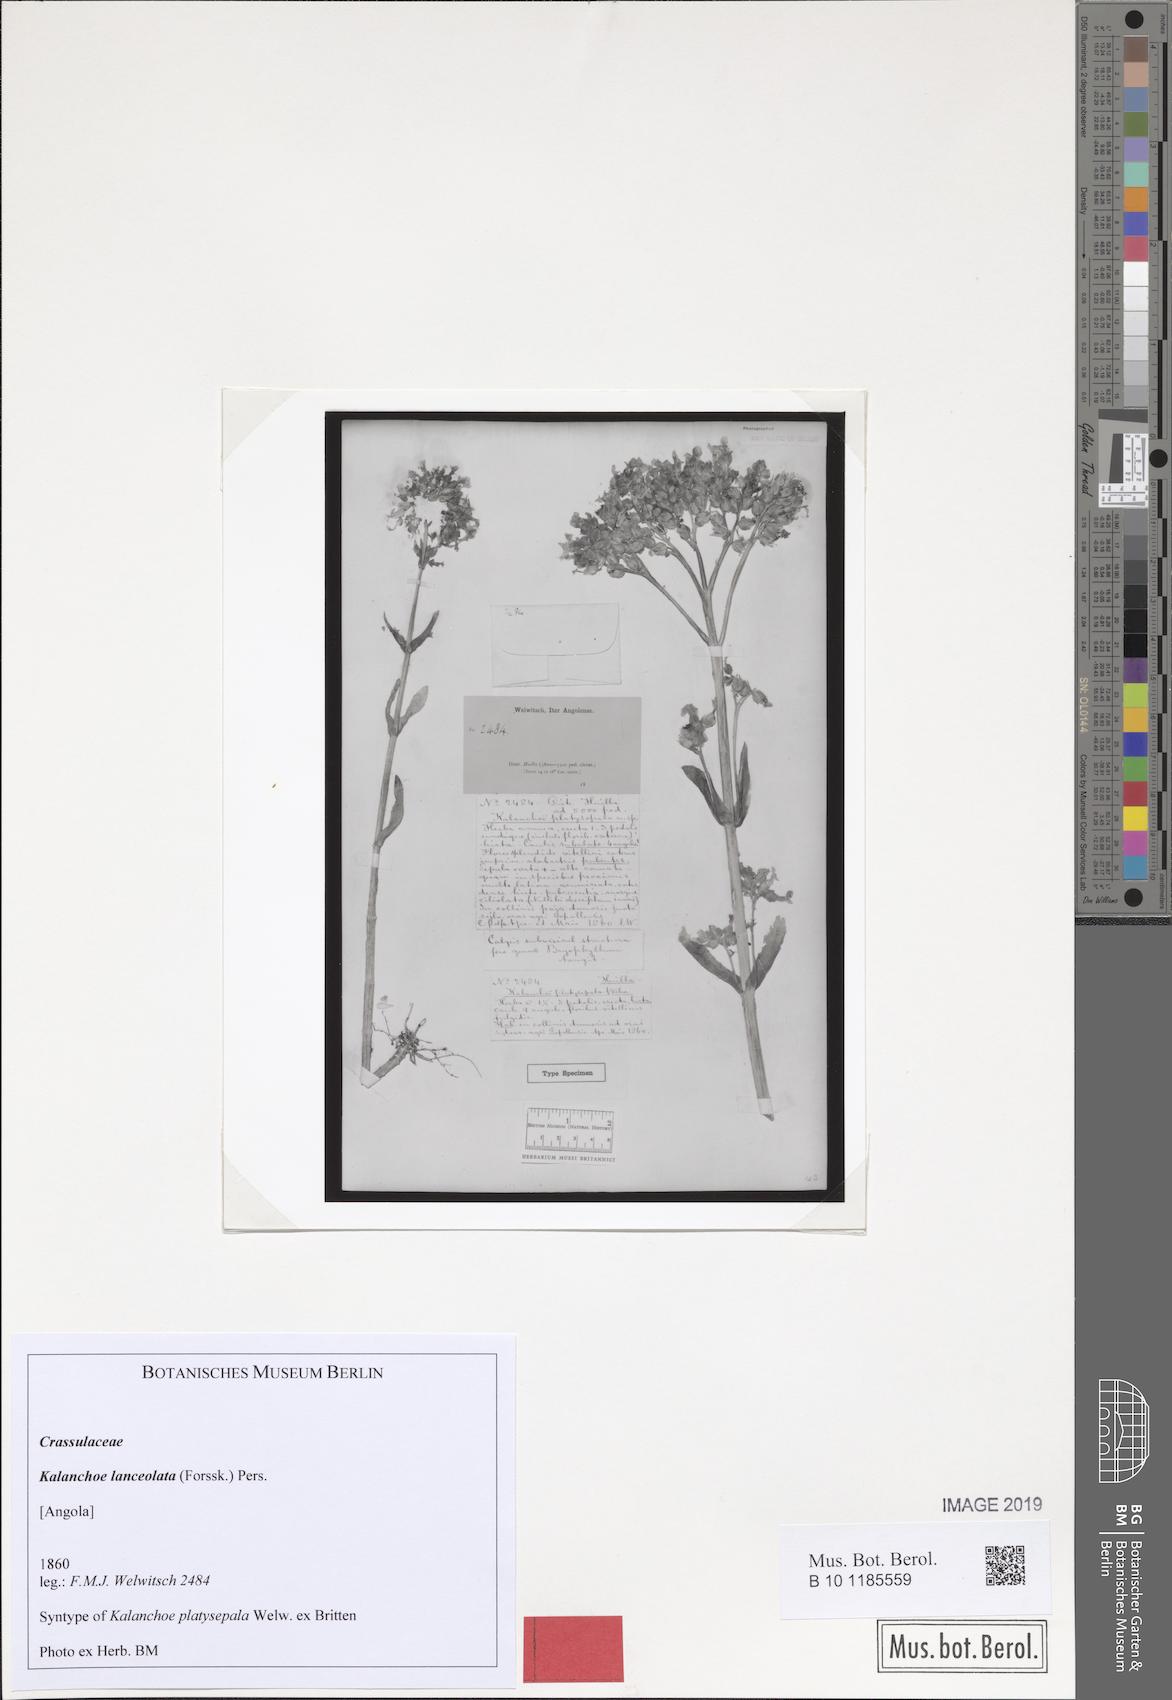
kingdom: Plantae
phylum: Tracheophyta
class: Magnoliopsida
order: Saxifragales
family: Crassulaceae
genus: Kalanchoe
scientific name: Kalanchoe lanceolata
